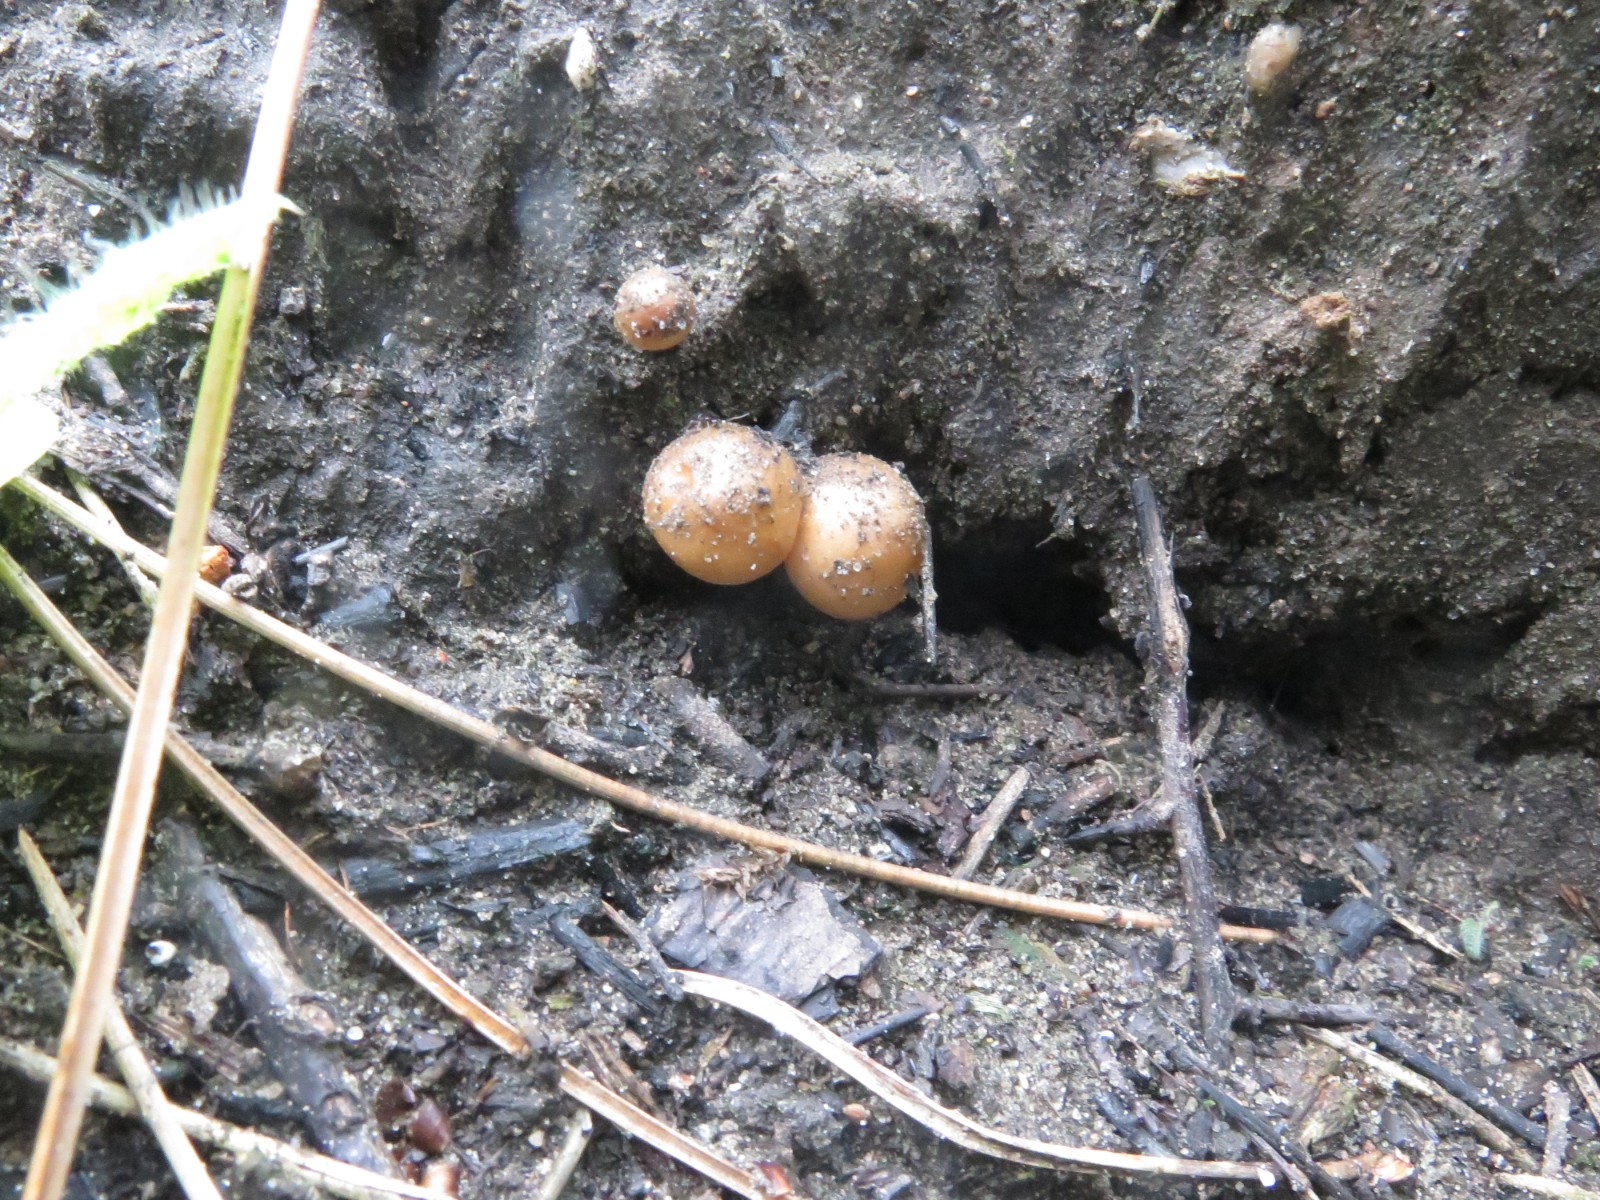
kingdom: Fungi
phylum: Basidiomycota
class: Agaricomycetes
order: Agaricales
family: Strophariaceae
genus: Pholiota
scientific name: Pholiota carbonaria
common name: kul-skælhat
